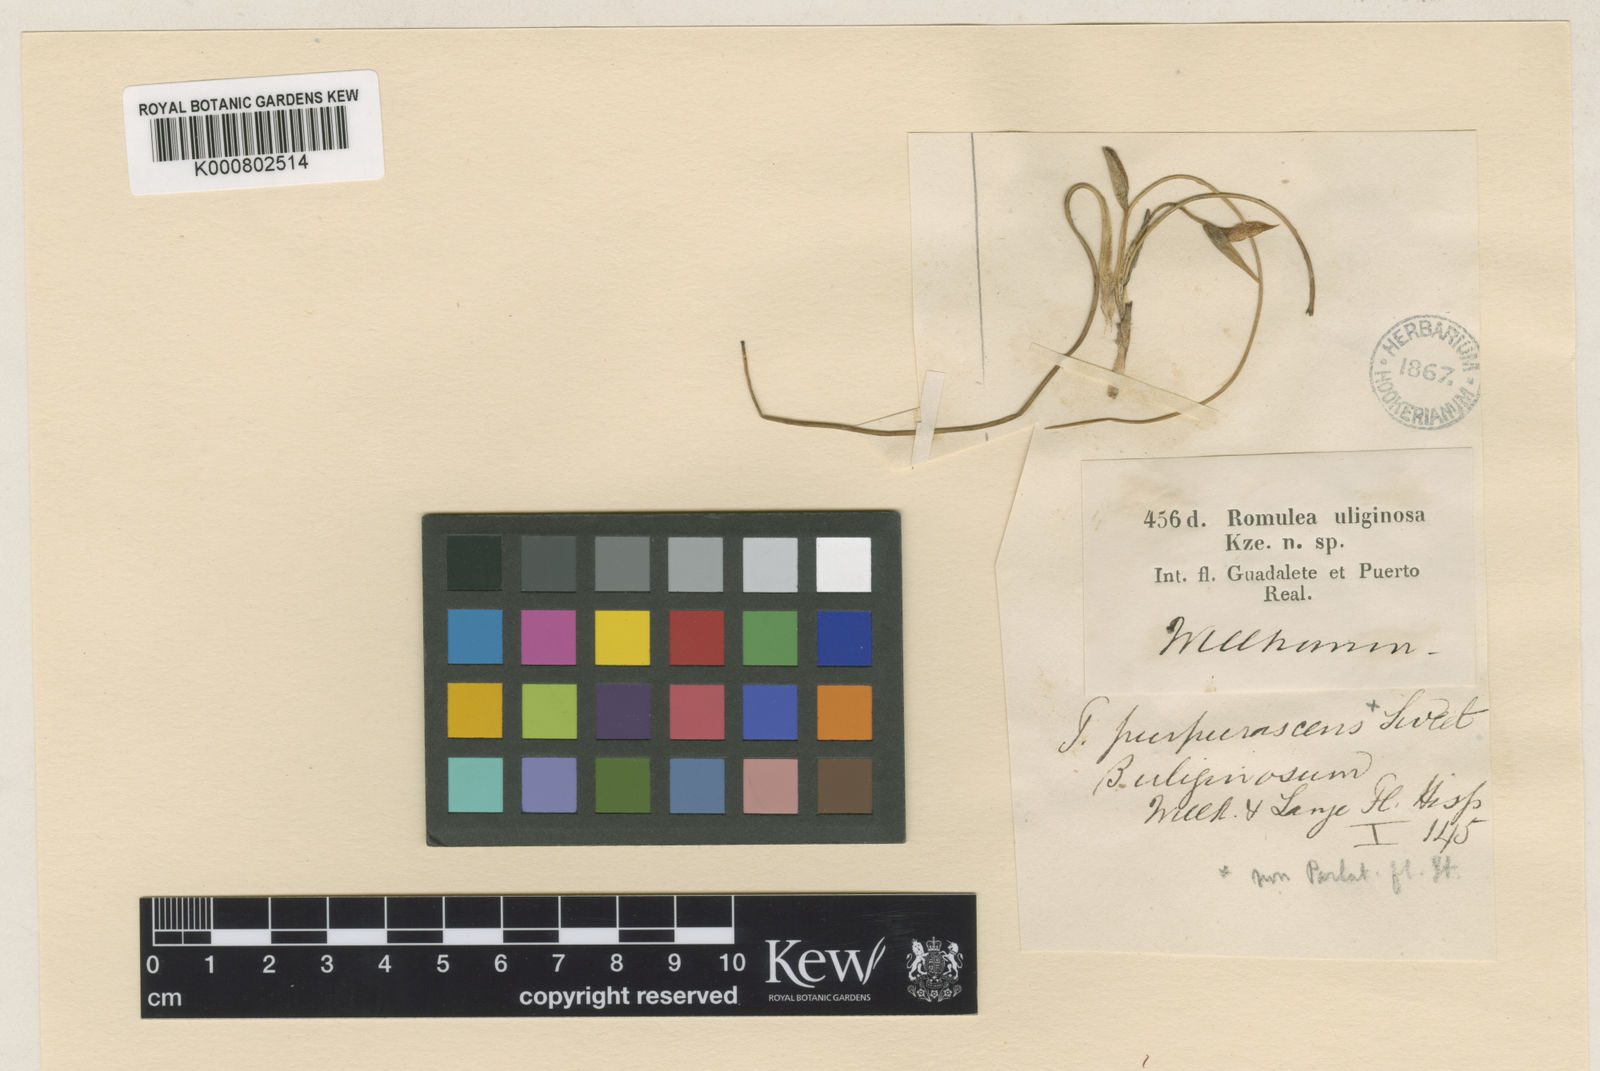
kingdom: Plantae
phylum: Tracheophyta
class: Liliopsida
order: Asparagales
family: Iridaceae
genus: Romulea
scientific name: Romulea bulbocodium
